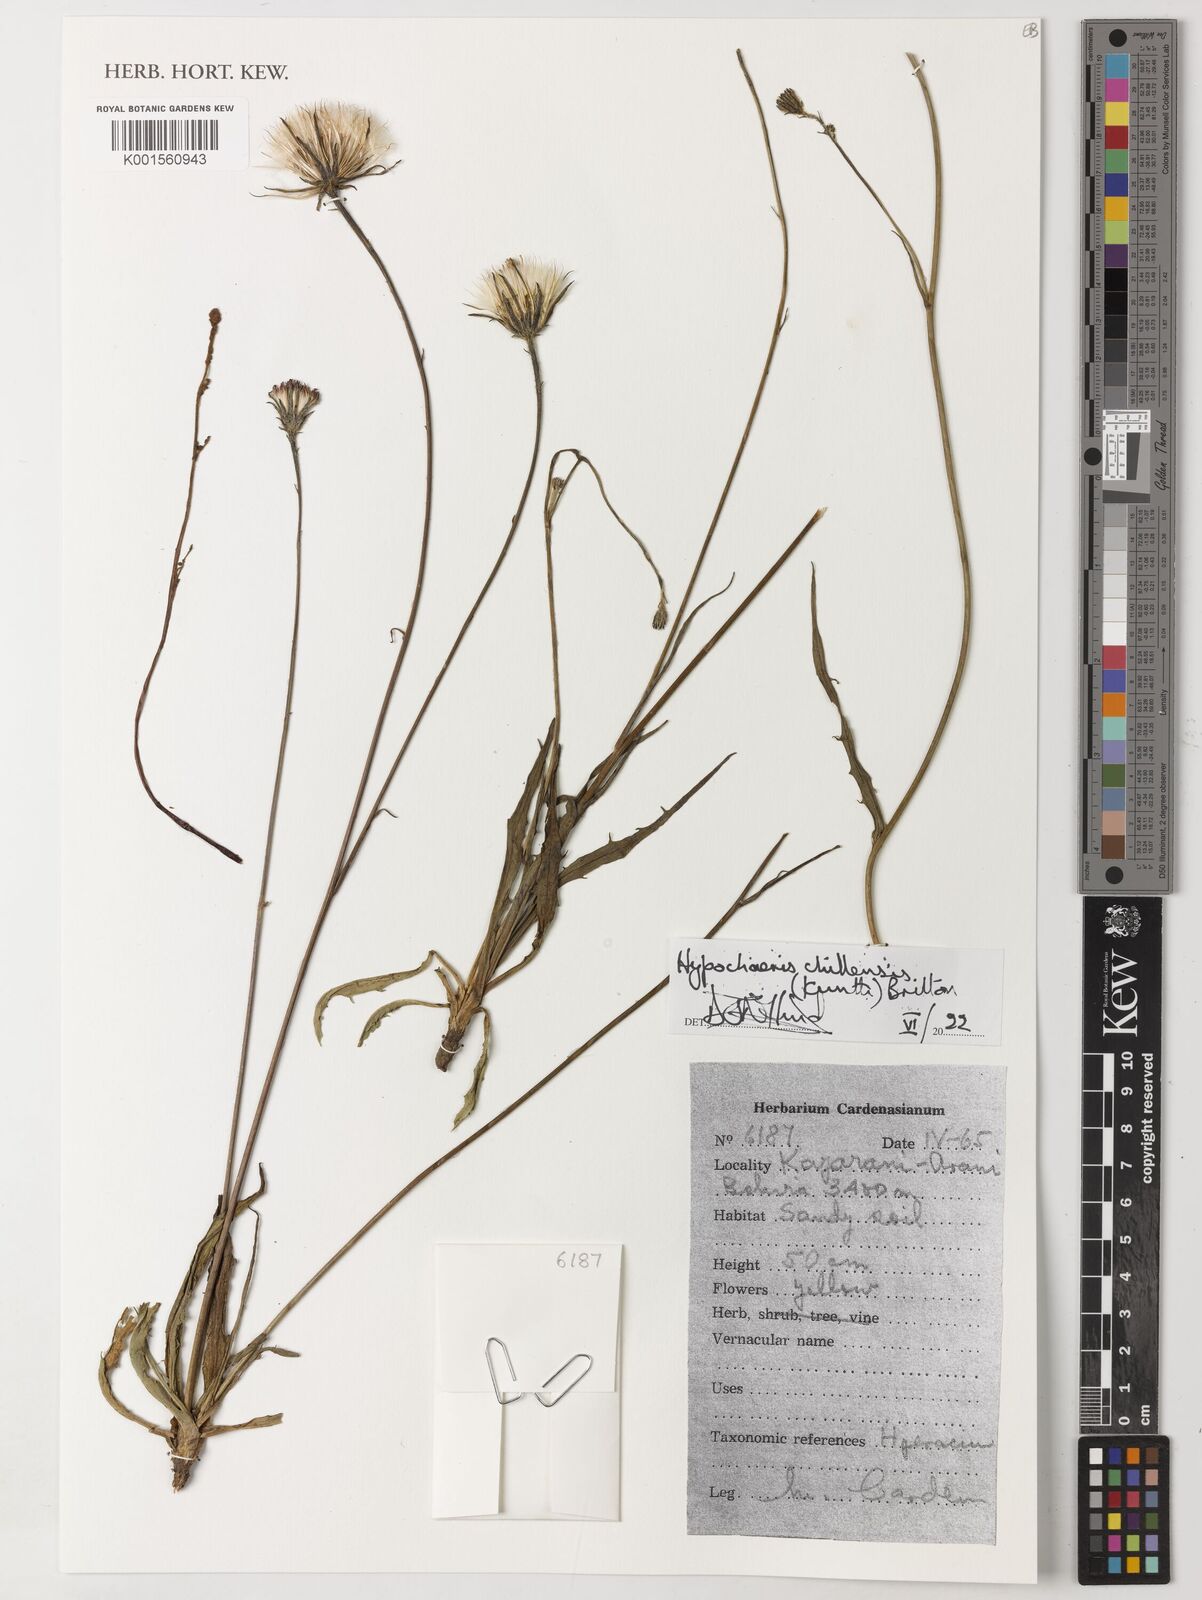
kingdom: Plantae
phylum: Tracheophyta
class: Magnoliopsida
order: Asterales
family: Asteraceae
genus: Hypochaeris
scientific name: Hypochaeris chillensis
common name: Brazilian cat's ear
